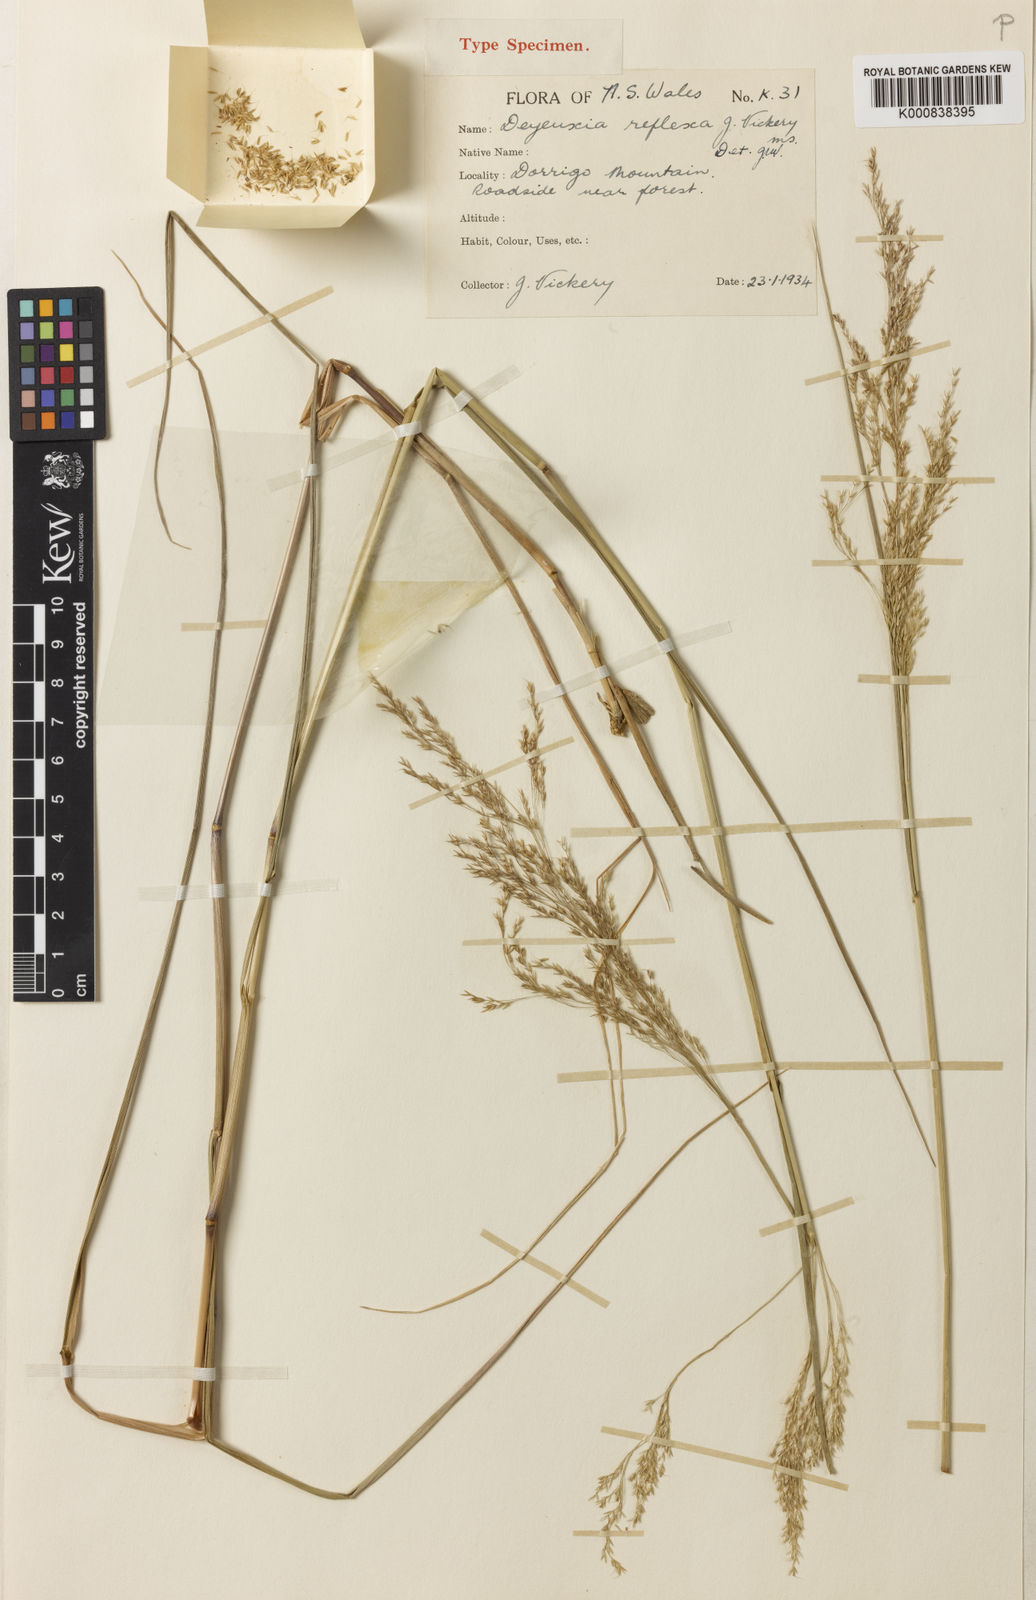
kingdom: Plantae
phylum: Tracheophyta
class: Liliopsida
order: Poales
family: Poaceae
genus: Calamagrostis
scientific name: Calamagrostis reflexa
